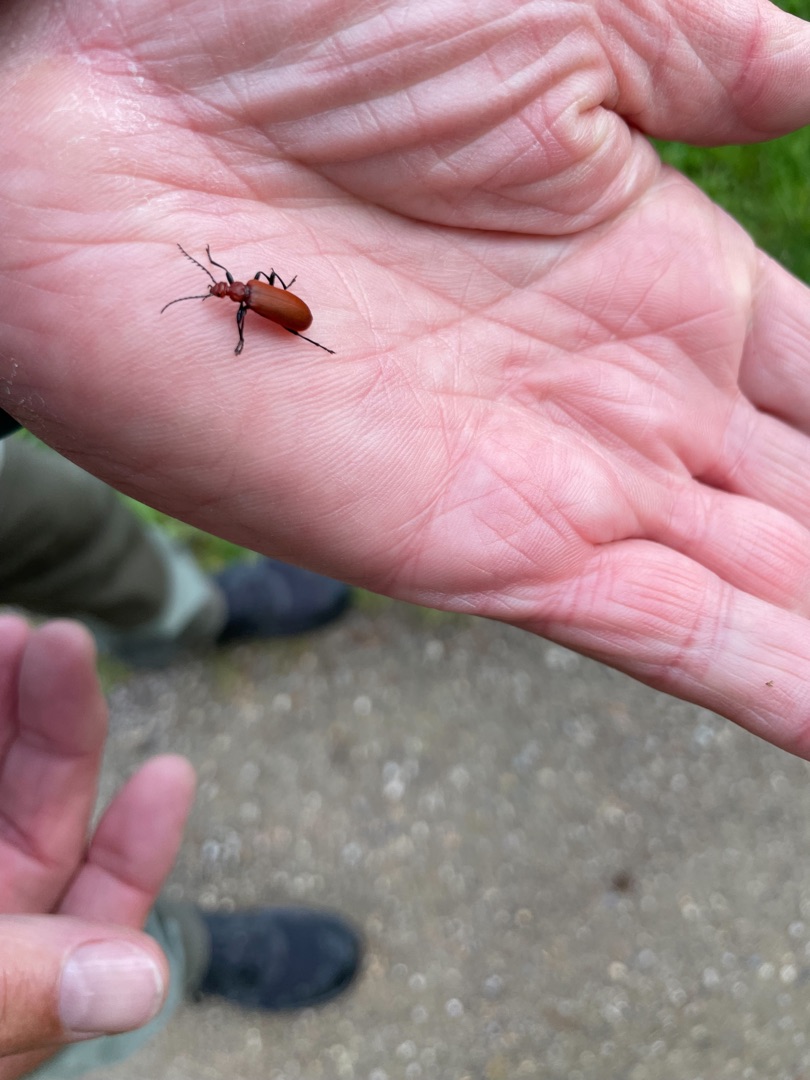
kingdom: Animalia
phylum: Arthropoda
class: Insecta
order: Coleoptera
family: Pyrochroidae
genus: Pyrochroa
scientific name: Pyrochroa serraticornis
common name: Rødhovedet kardinalbille
